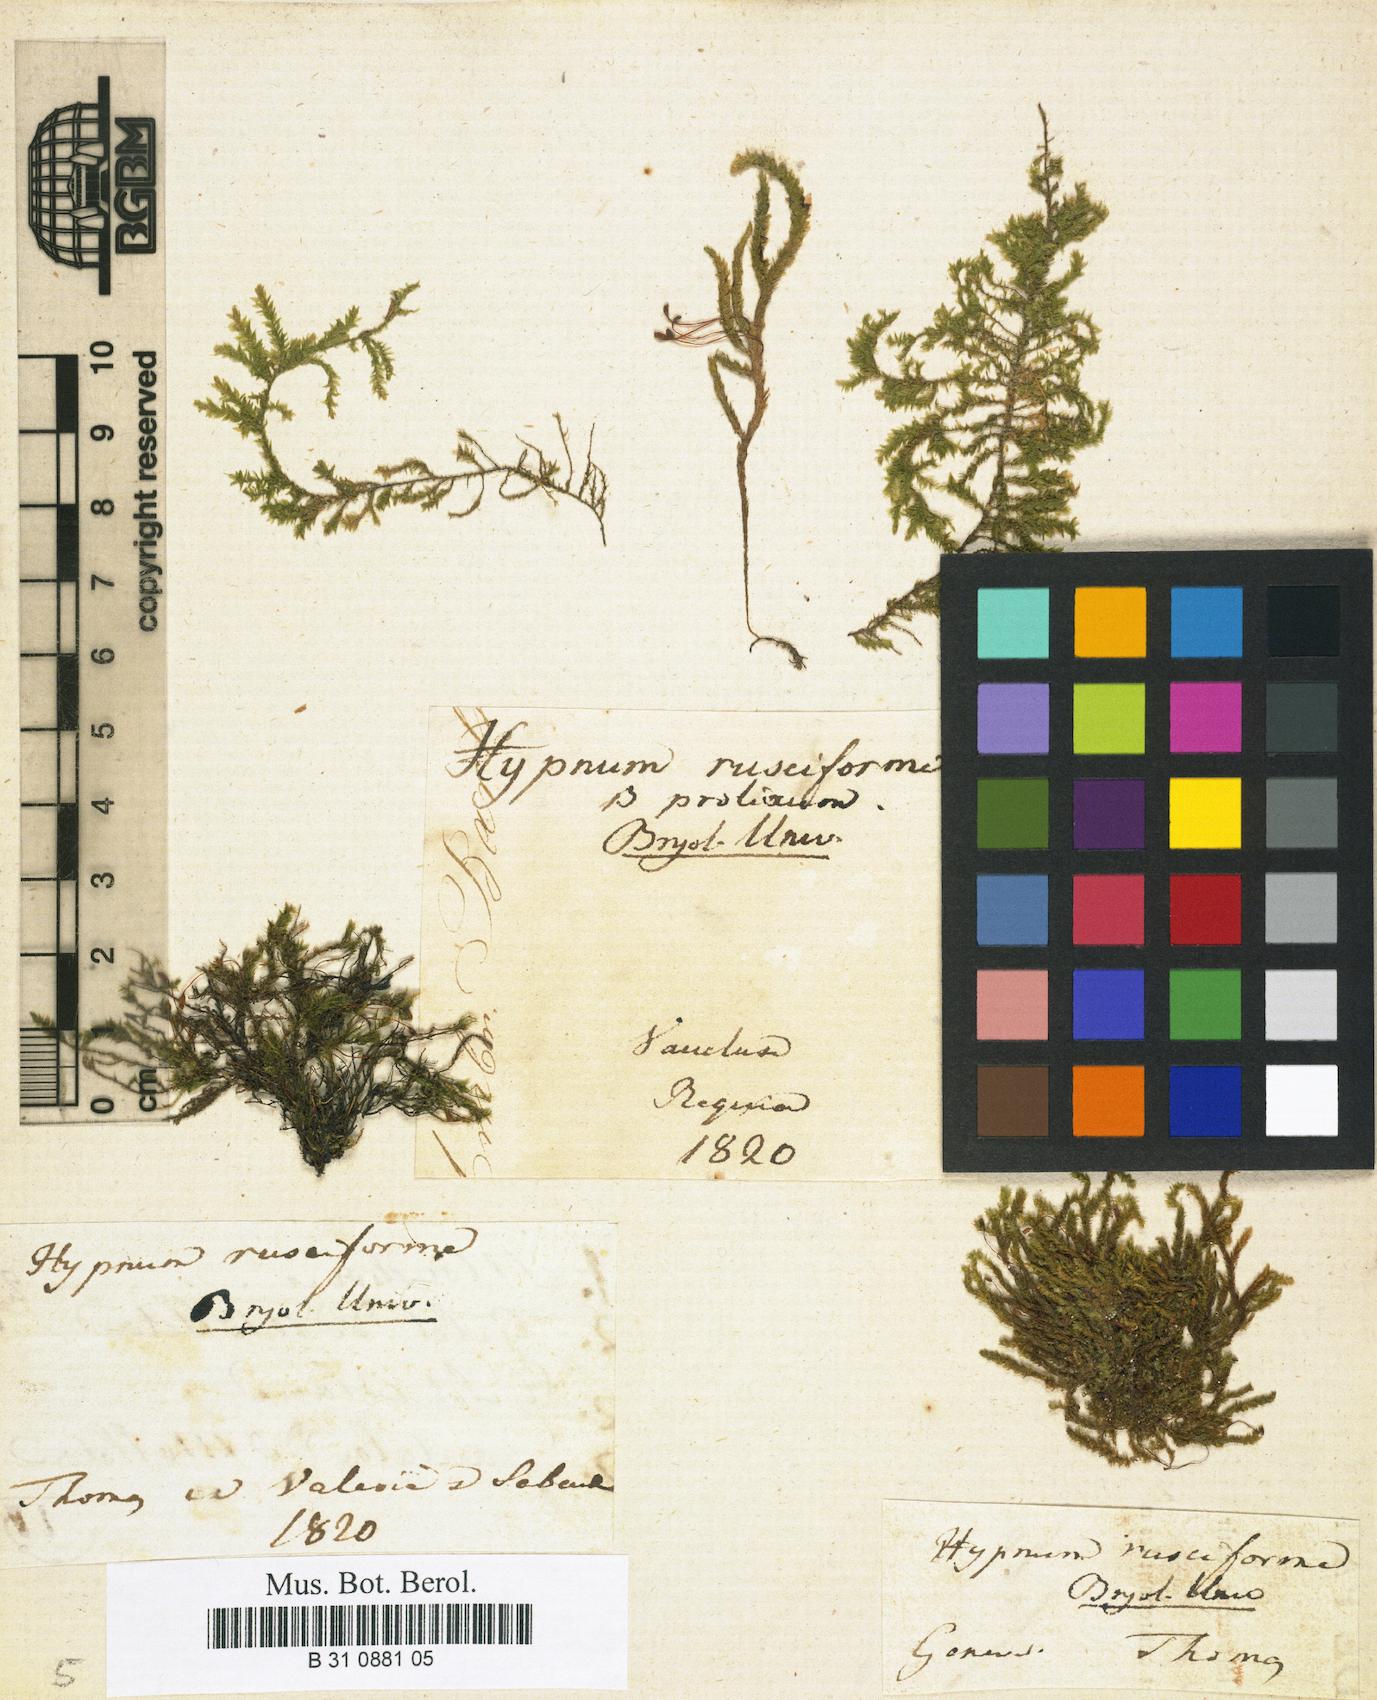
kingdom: Plantae
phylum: Bryophyta
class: Bryopsida
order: Hypnales
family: Brachytheciaceae
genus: Rhynchostegium
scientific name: Rhynchostegium riparioides
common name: Platyhypnidium moss
